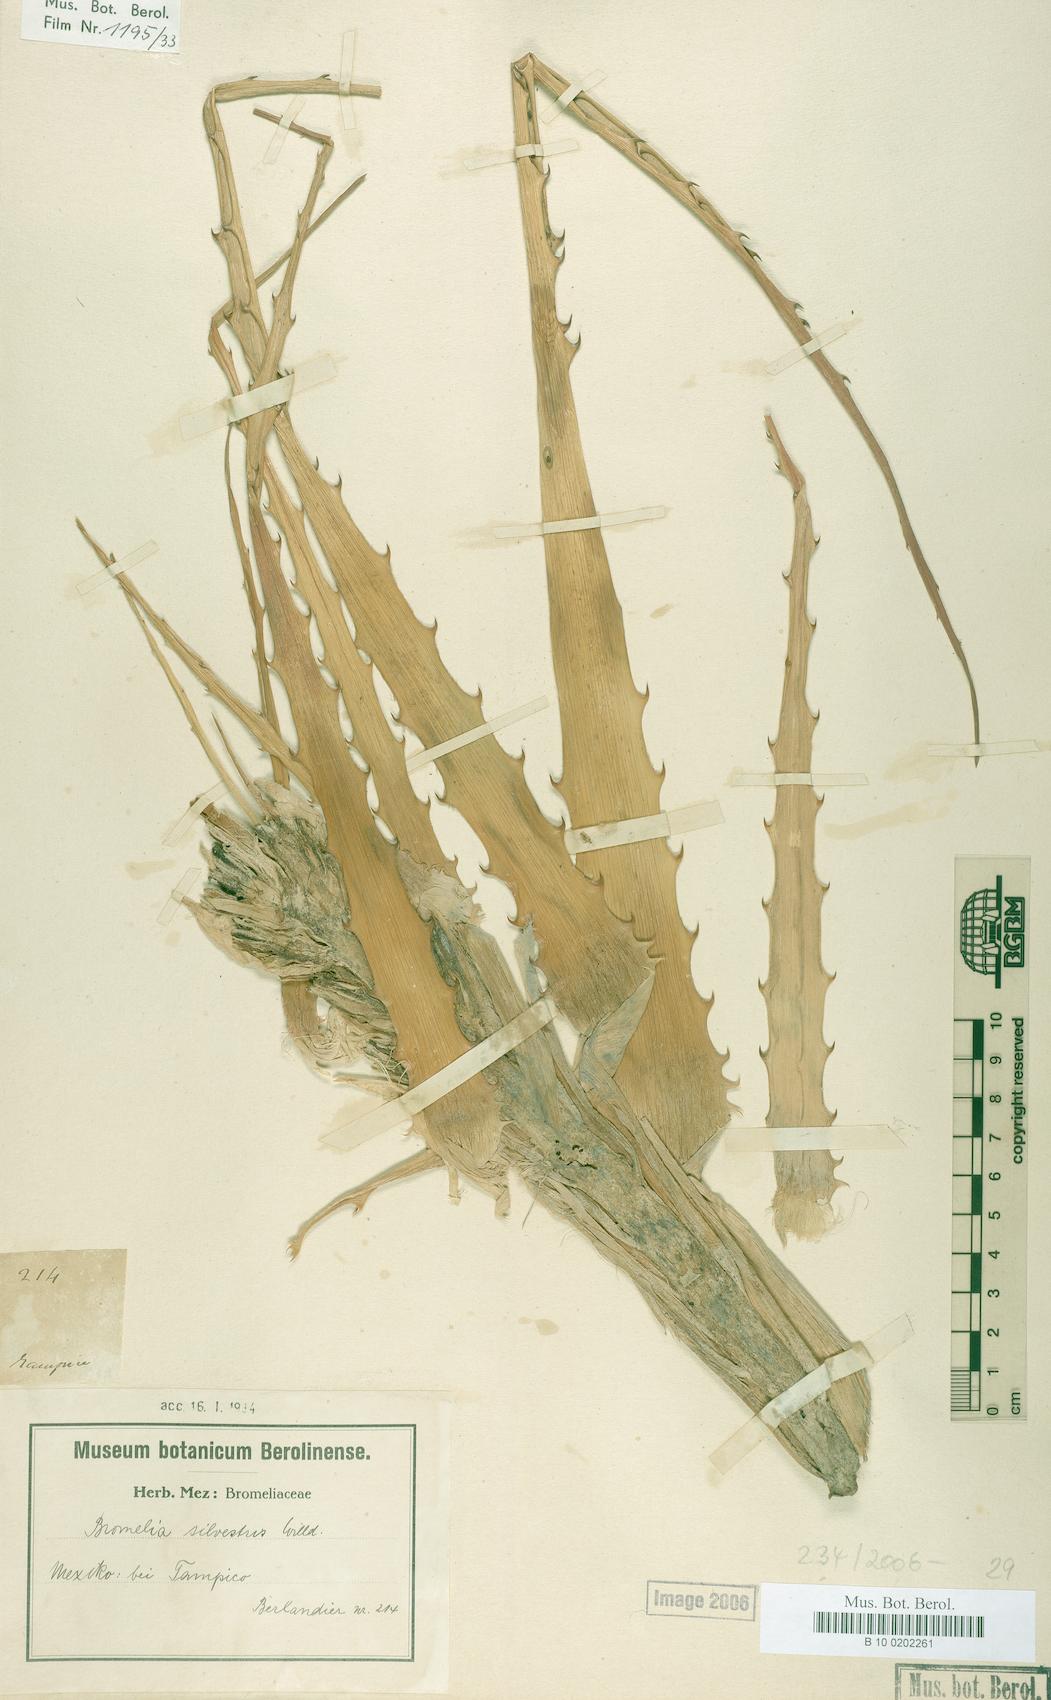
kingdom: Plantae
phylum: Tracheophyta
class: Liliopsida
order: Poales
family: Bromeliaceae
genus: Bromelia
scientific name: Bromelia pinguin
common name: Pinguin
